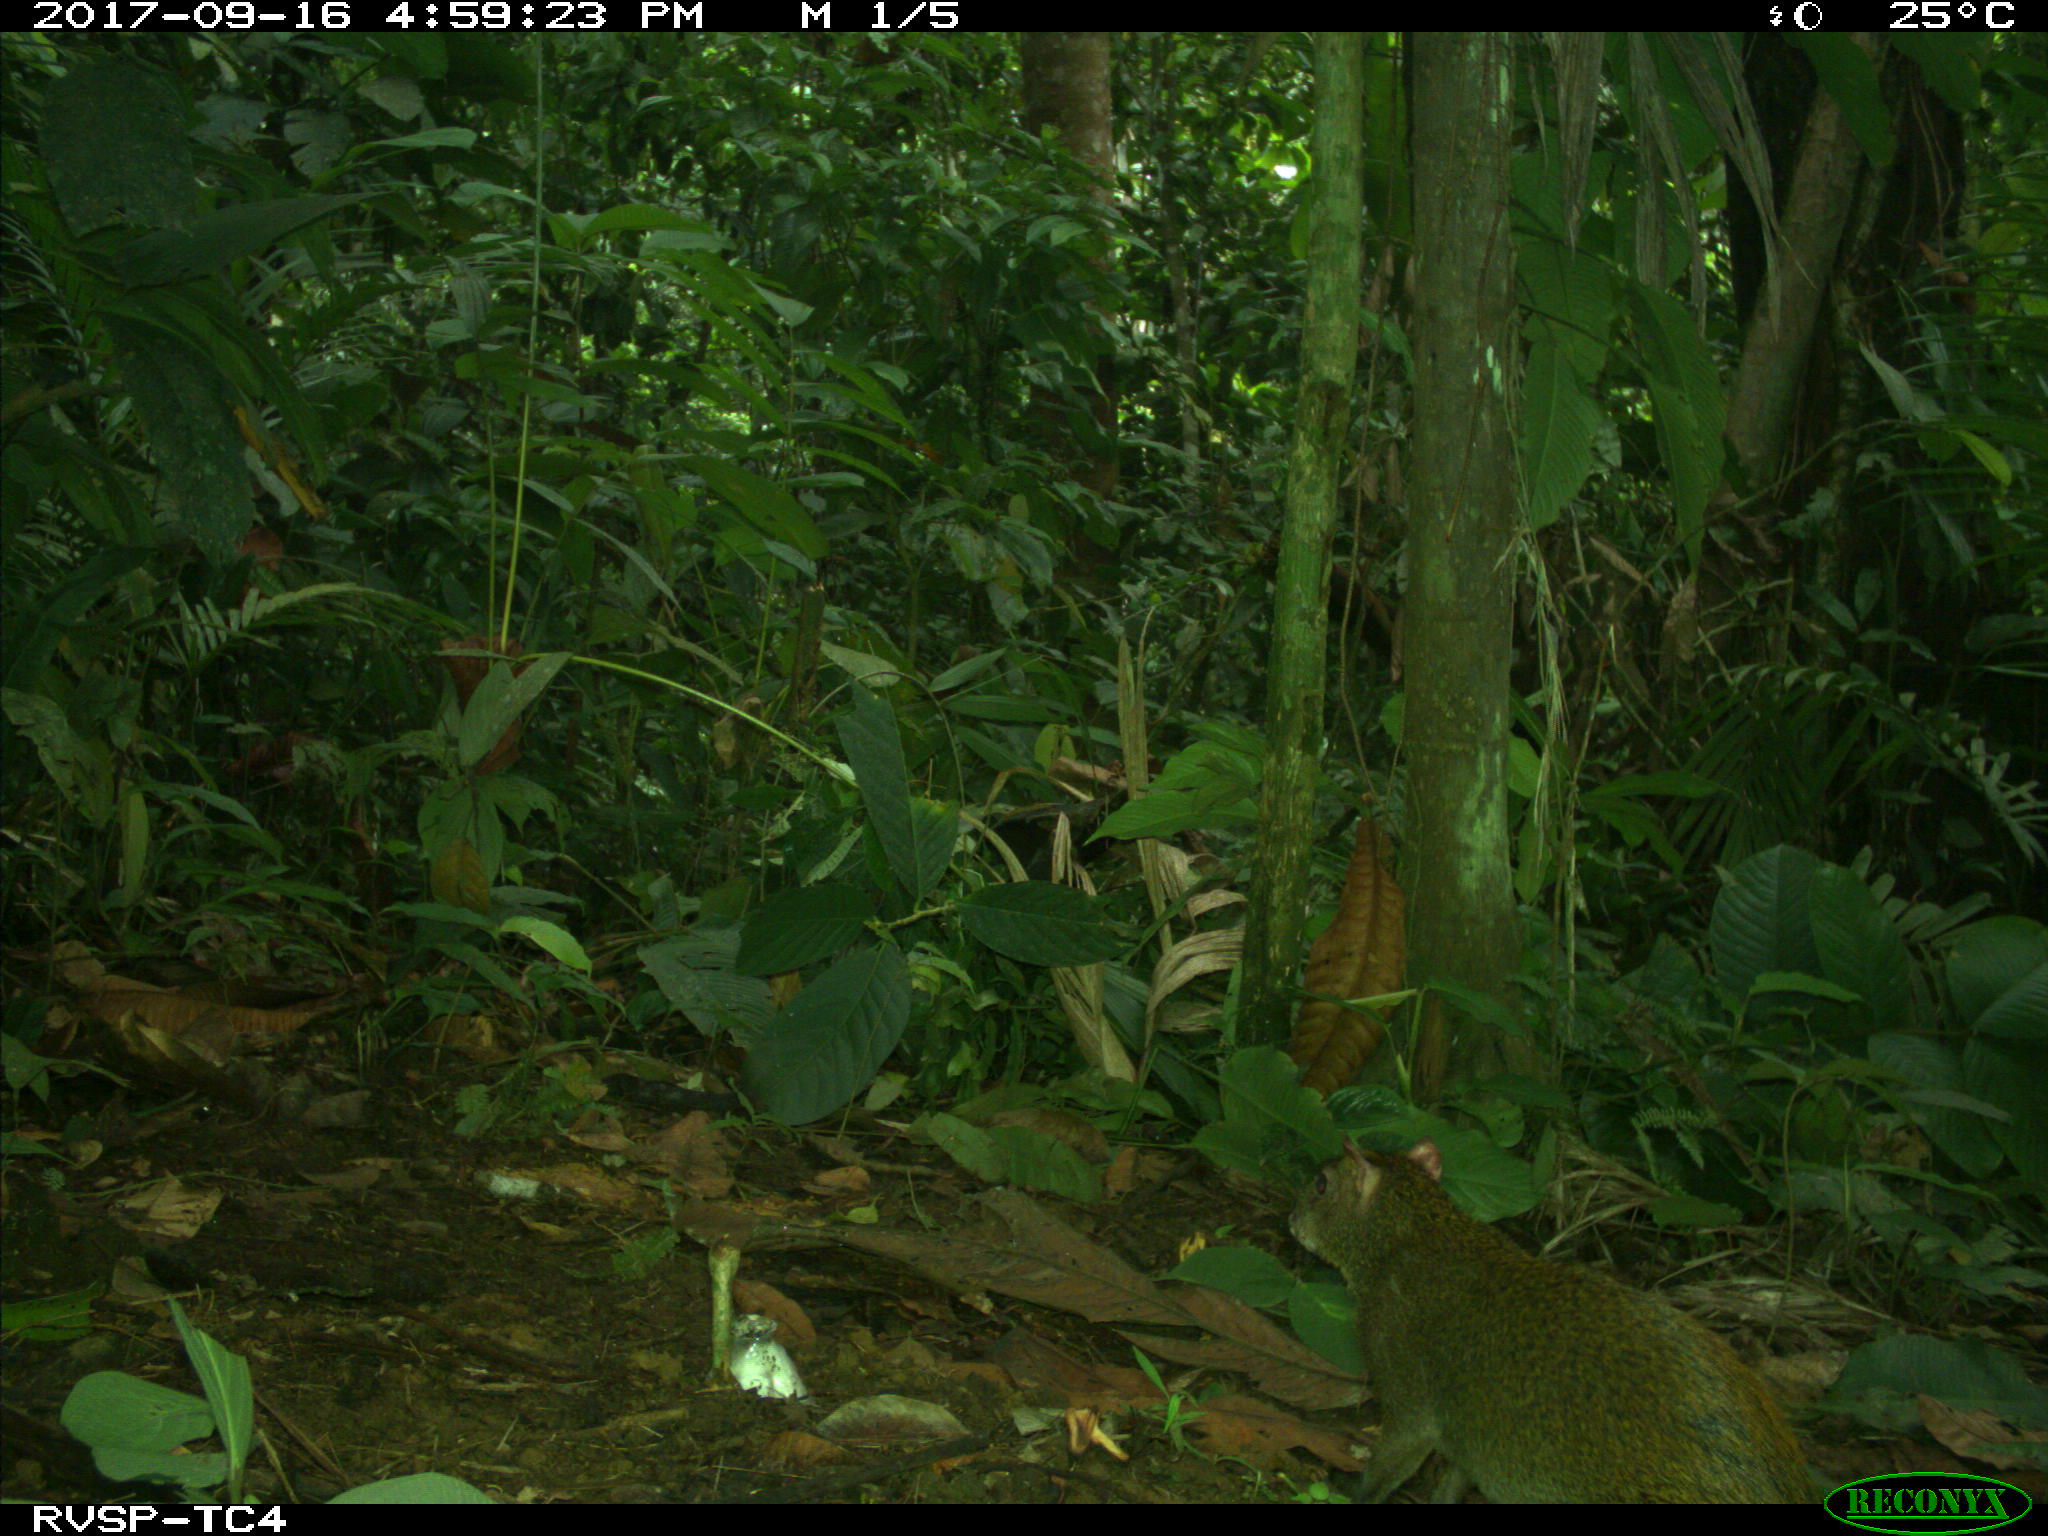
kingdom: Animalia
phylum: Chordata
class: Mammalia
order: Rodentia
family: Dasyproctidae
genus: Dasyprocta
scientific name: Dasyprocta punctata
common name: Central american agouti
